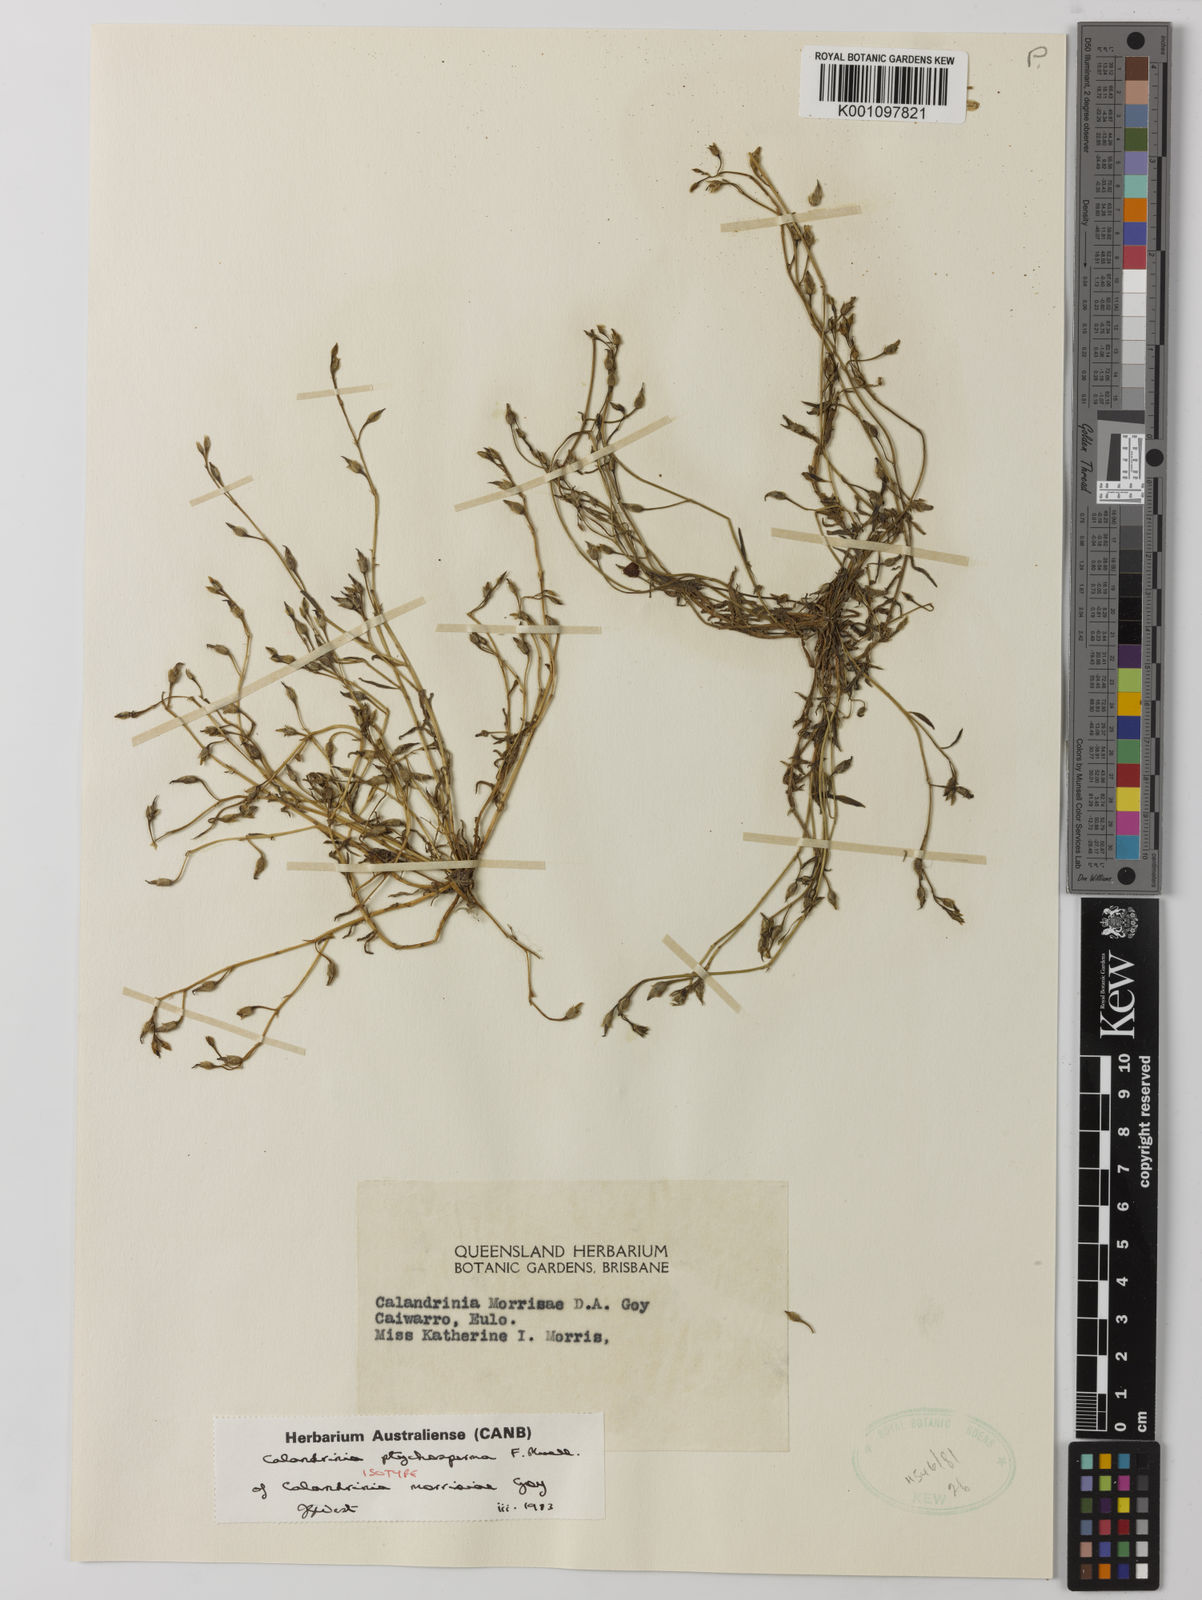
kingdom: Plantae
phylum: Tracheophyta
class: Magnoliopsida
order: Caryophyllales
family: Montiaceae
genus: Rumicastrum
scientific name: Rumicastrum ptychospermum
